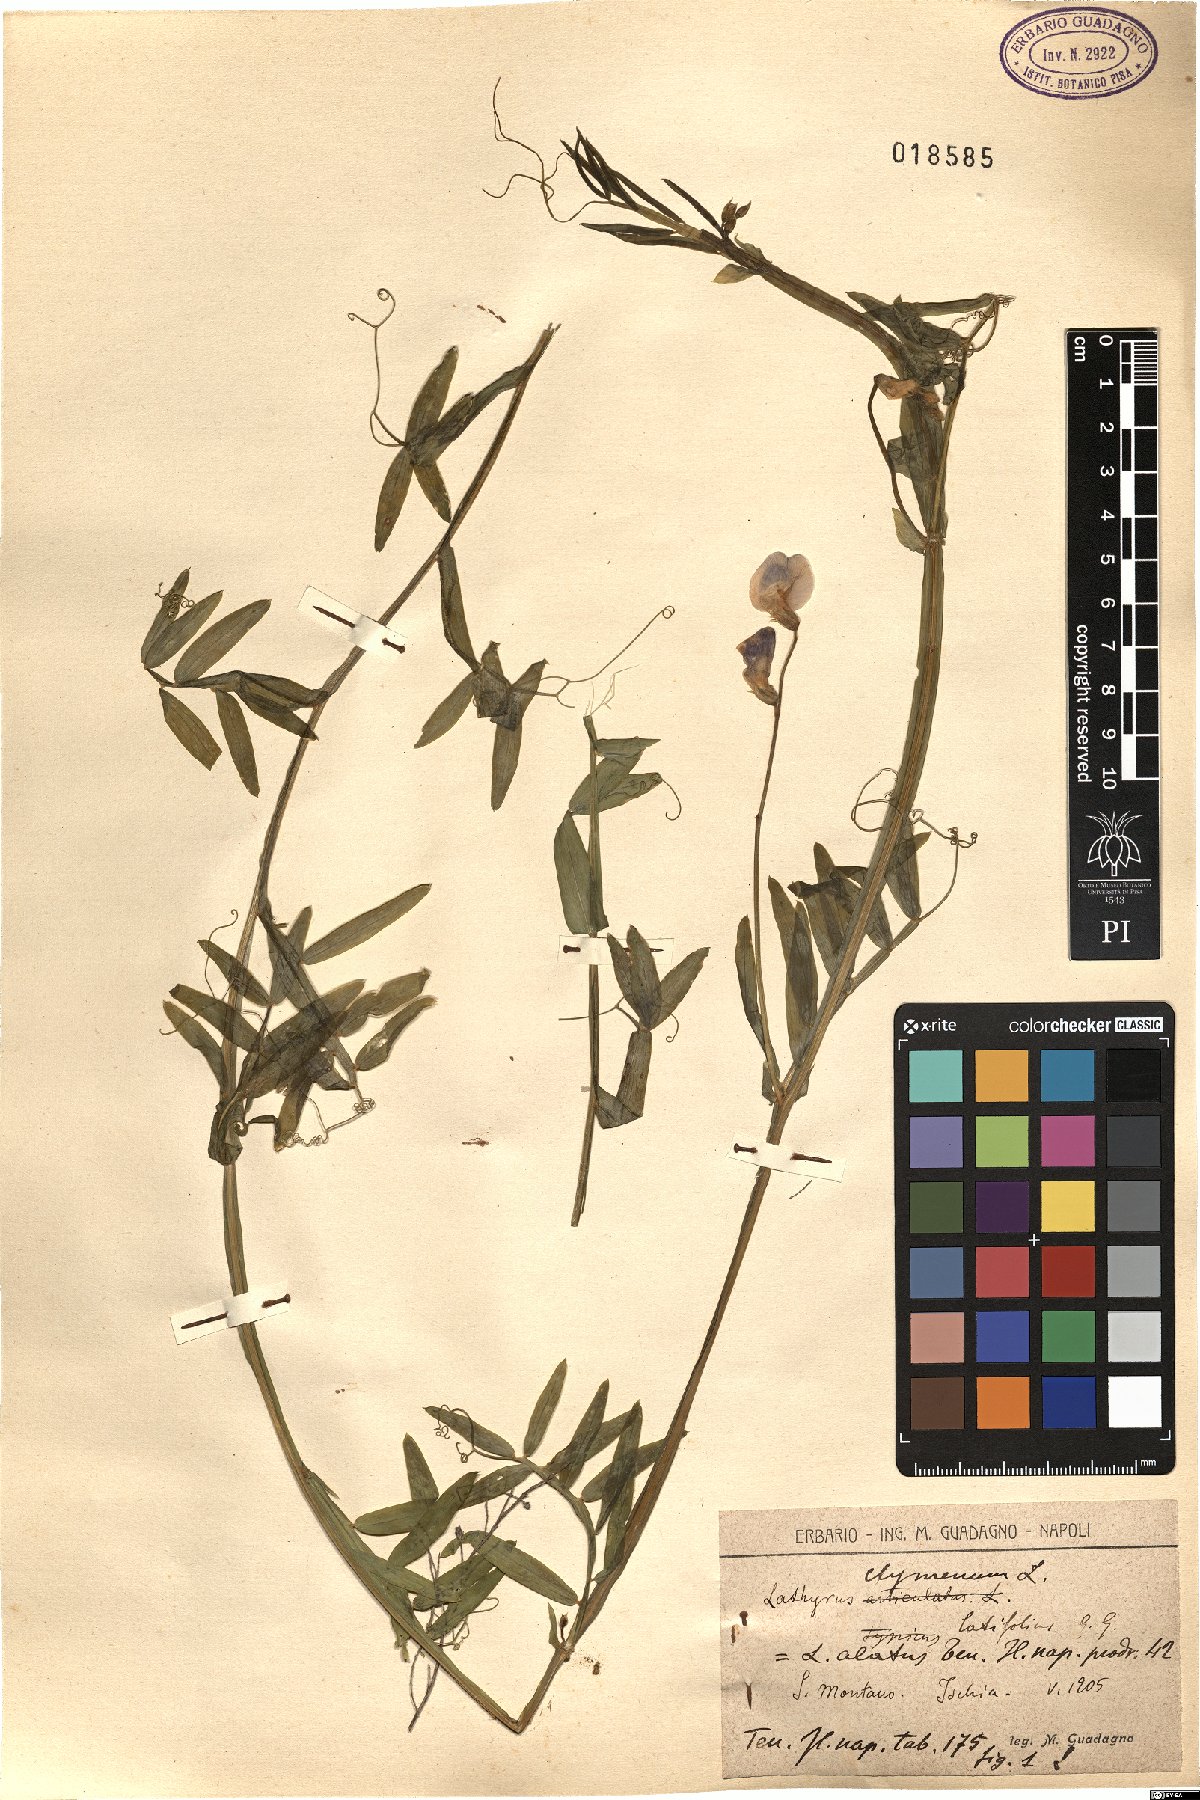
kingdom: Plantae
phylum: Tracheophyta
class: Magnoliopsida
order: Fabales
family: Fabaceae
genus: Lathyrus
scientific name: Lathyrus clymenum
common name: Spanish vetchling
